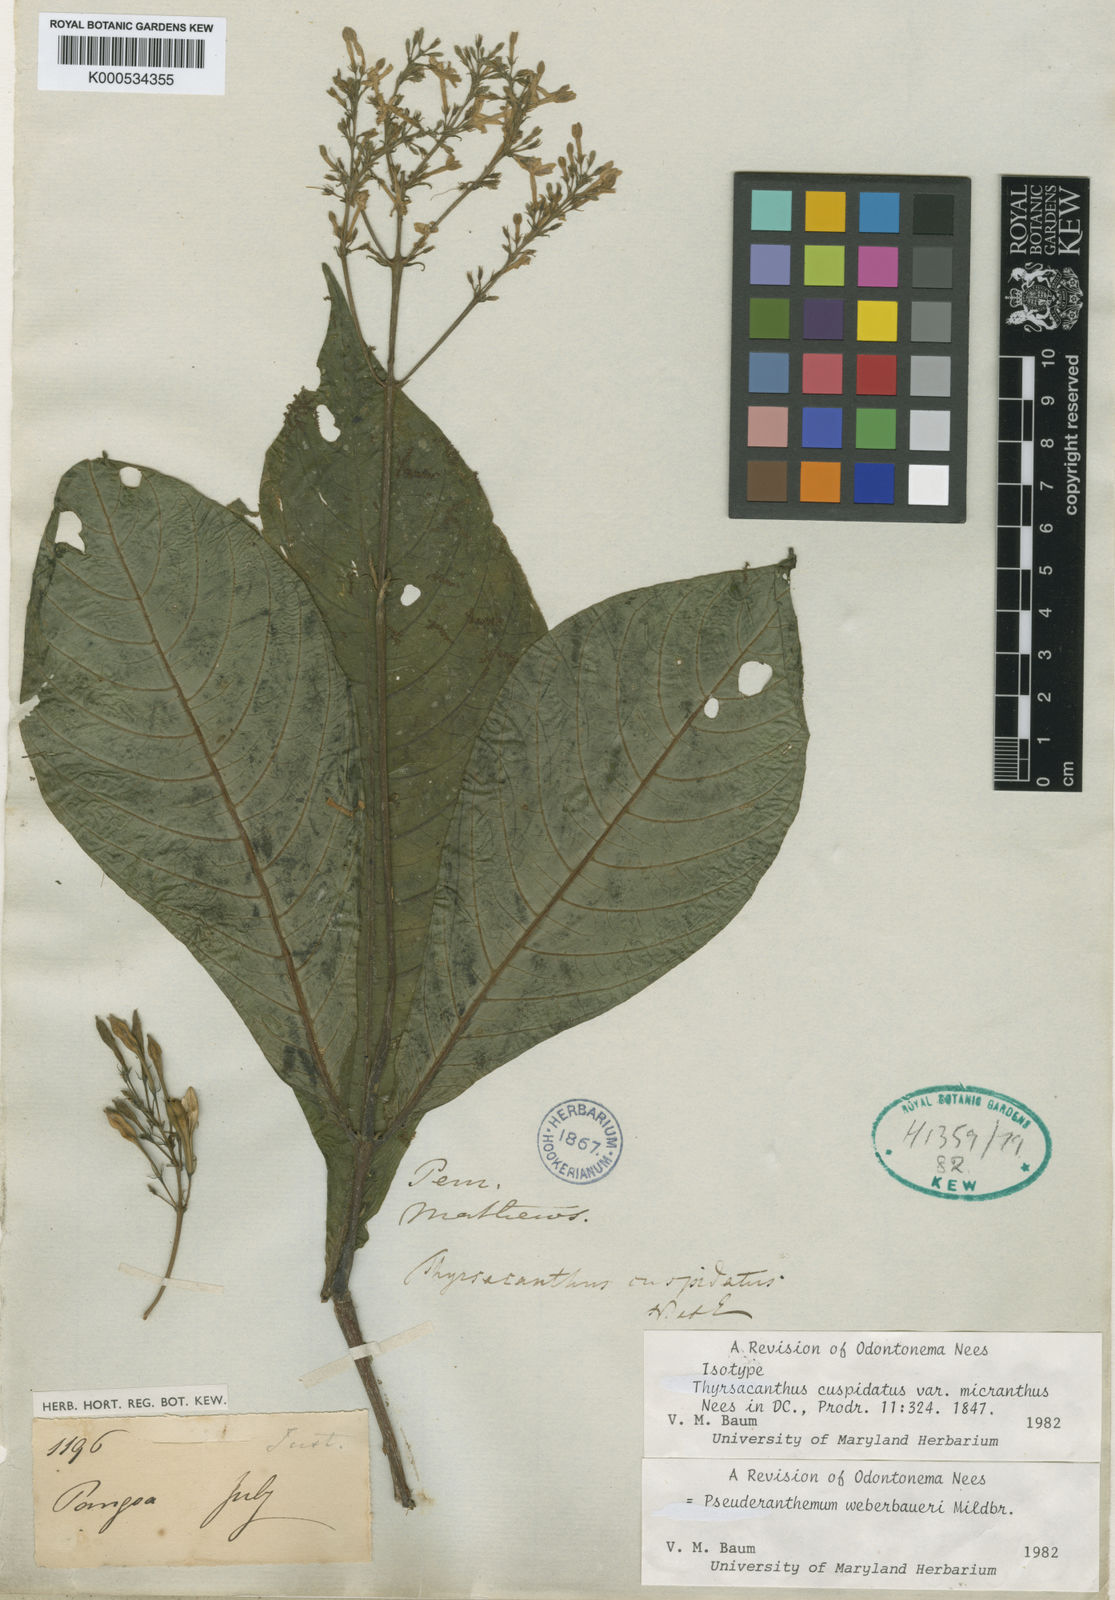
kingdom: Plantae
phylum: Tracheophyta
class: Magnoliopsida
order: Lamiales
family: Acanthaceae
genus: Pseuderanthemum
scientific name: Pseuderanthemum weberbaueri
